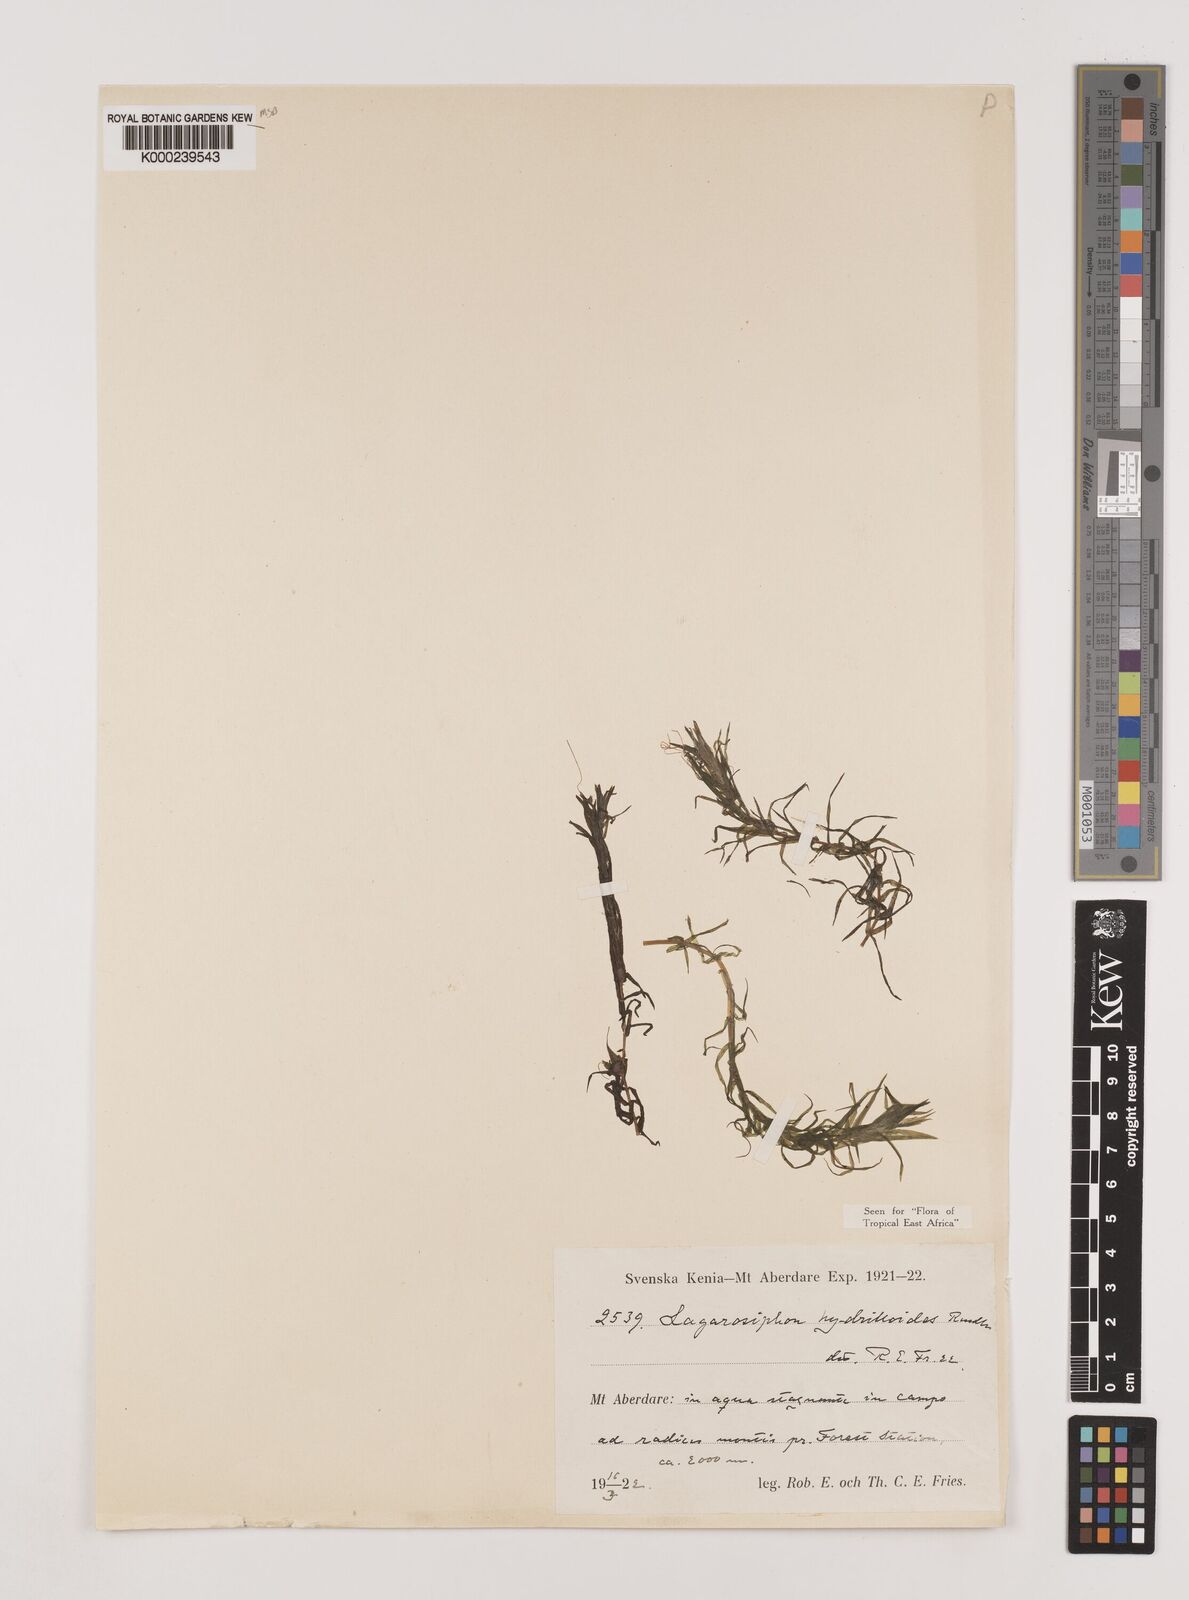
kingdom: Plantae
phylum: Tracheophyta
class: Liliopsida
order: Alismatales
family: Hydrocharitaceae
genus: Lagarosiphon
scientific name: Lagarosiphon hydrilloides
